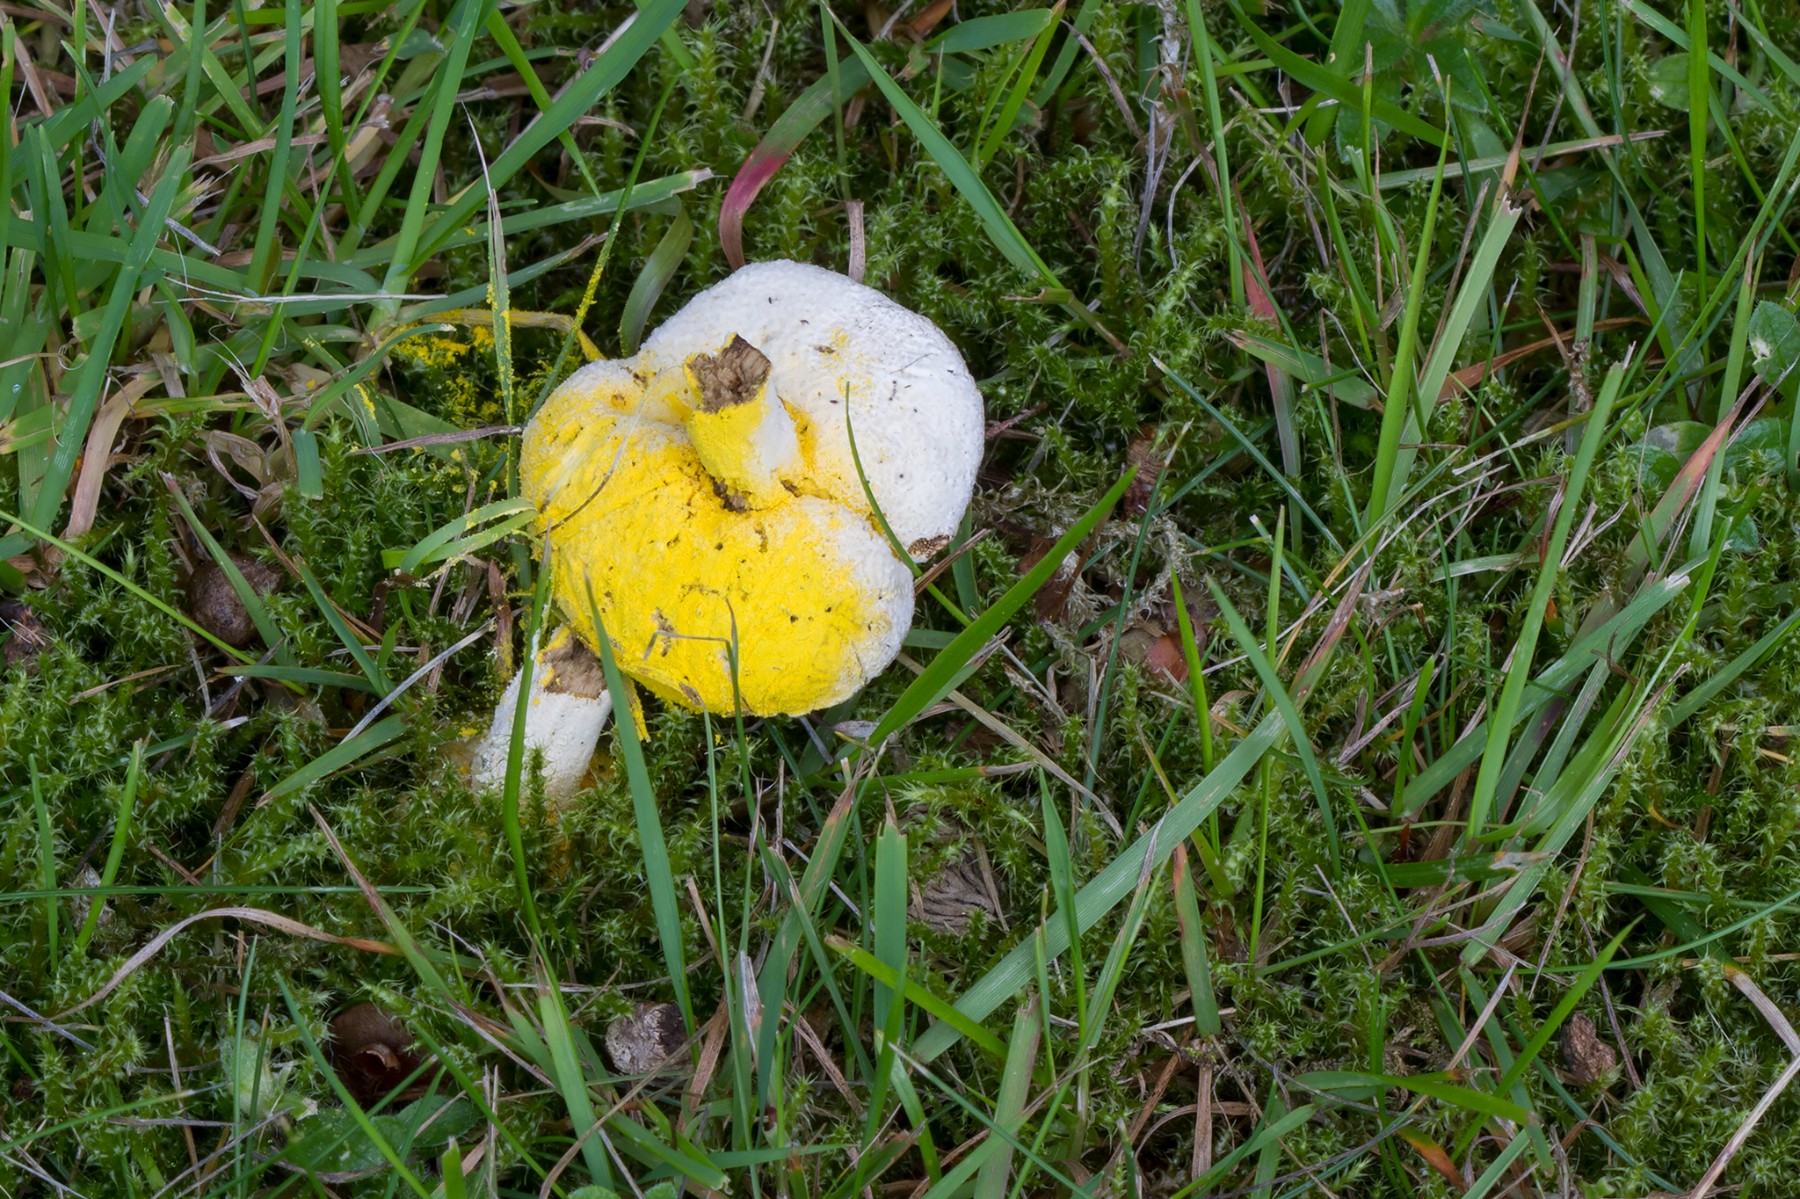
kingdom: Fungi
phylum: Ascomycota
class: Sordariomycetes
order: Hypocreales
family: Hypocreaceae
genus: Hypomyces
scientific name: Hypomyces microspermus
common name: dværgrørhat-snylteskorpe
